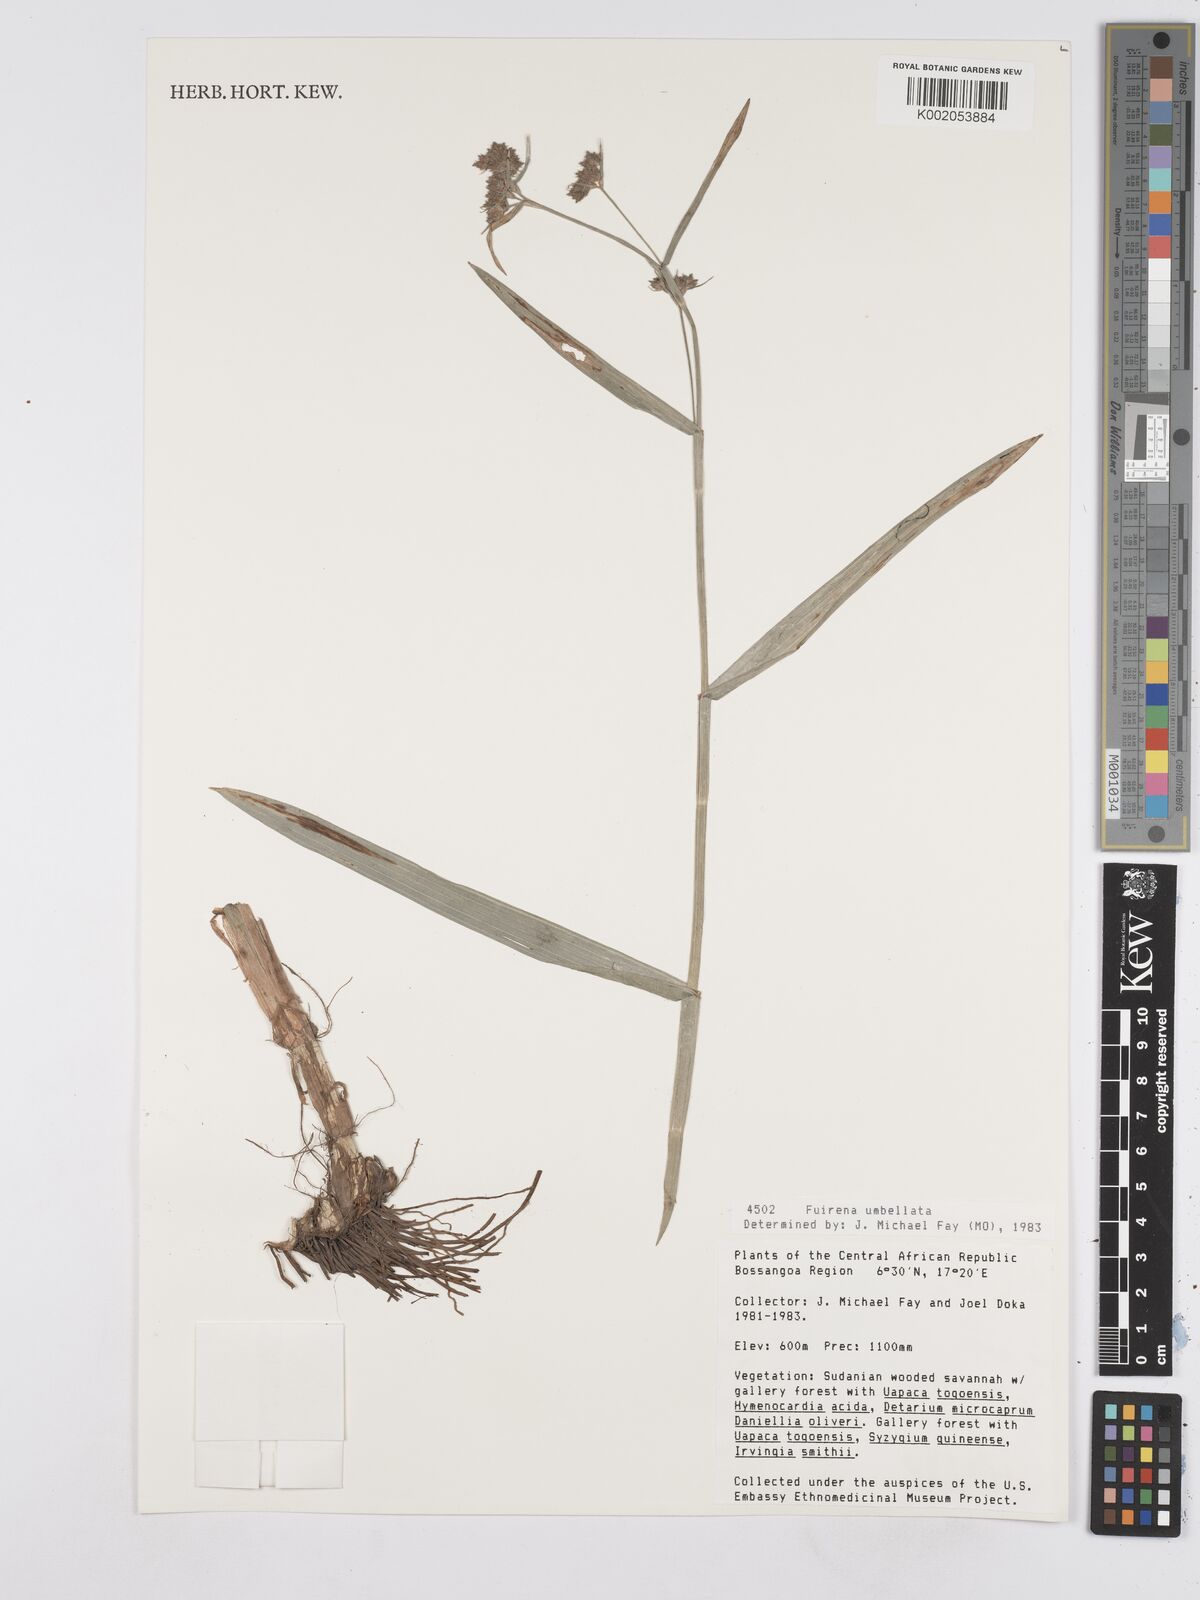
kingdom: Plantae
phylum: Tracheophyta
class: Liliopsida
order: Poales
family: Cyperaceae
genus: Fuirena
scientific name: Fuirena umbellata
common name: Yefen
